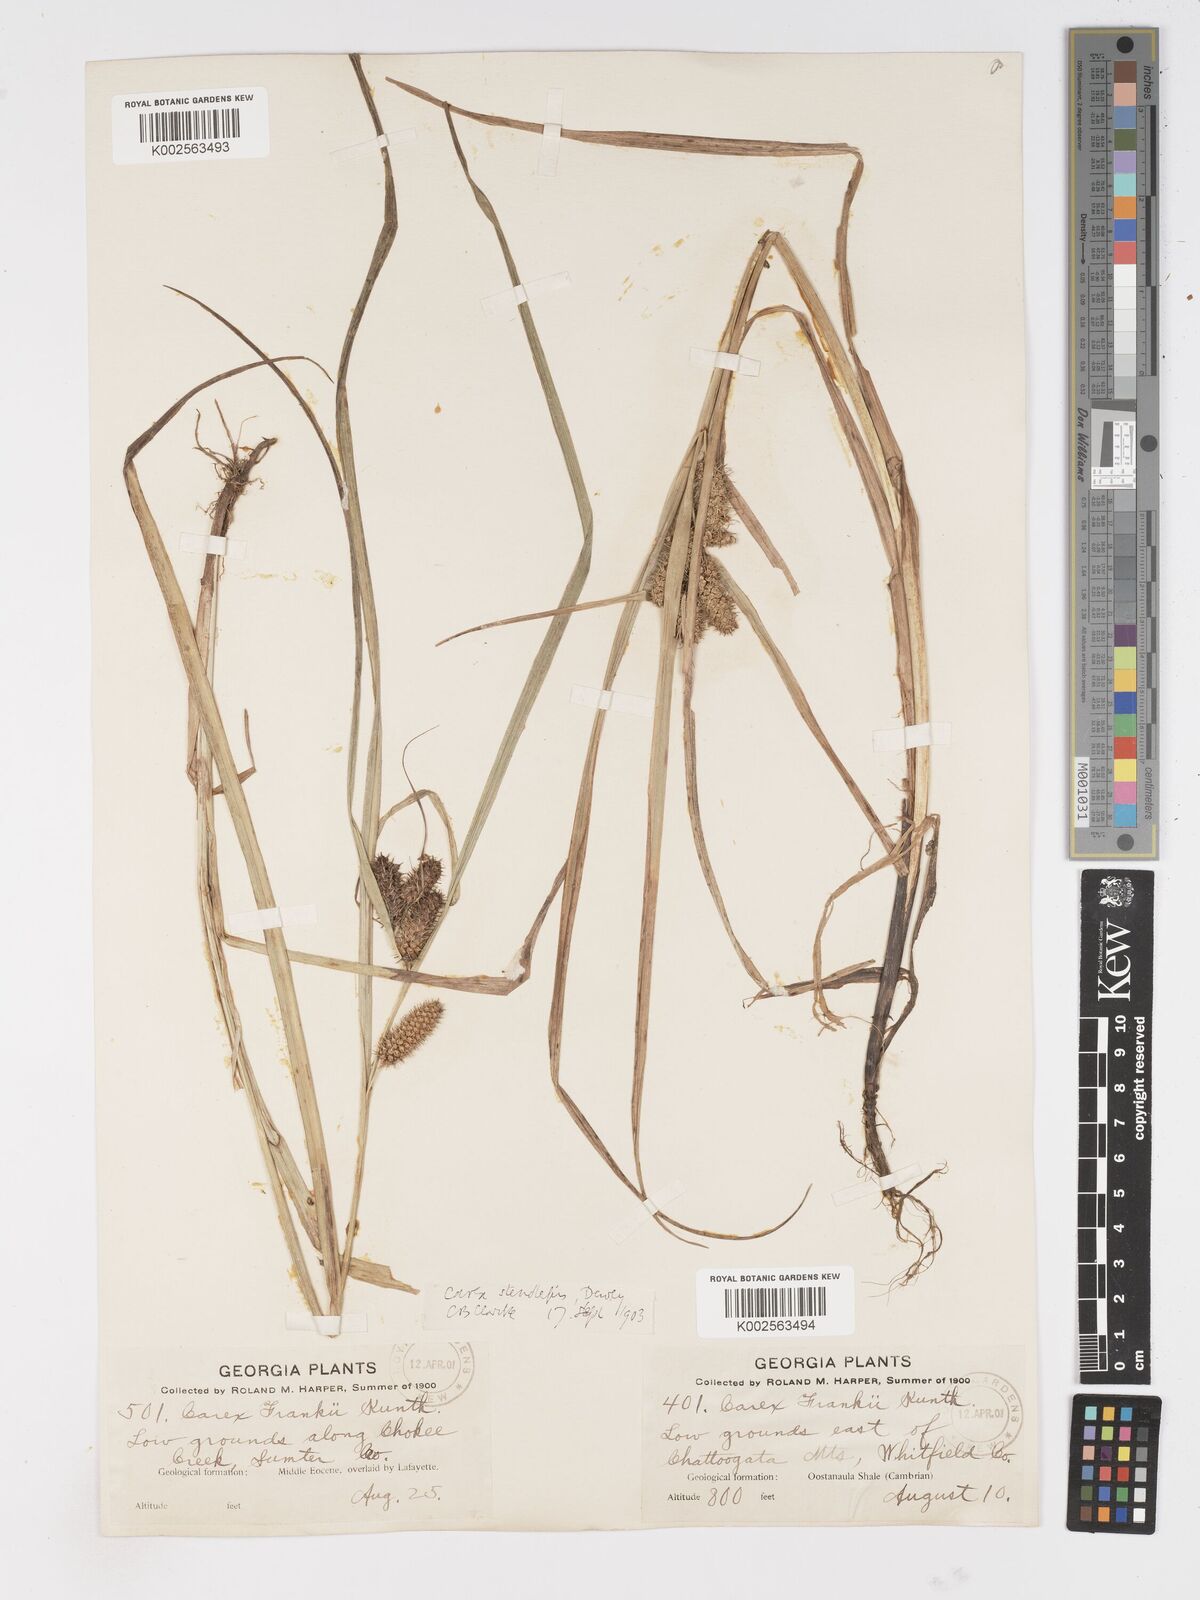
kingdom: Plantae
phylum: Tracheophyta
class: Liliopsida
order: Poales
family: Cyperaceae
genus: Carex
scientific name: Carex frankii
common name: Frank's sedge
